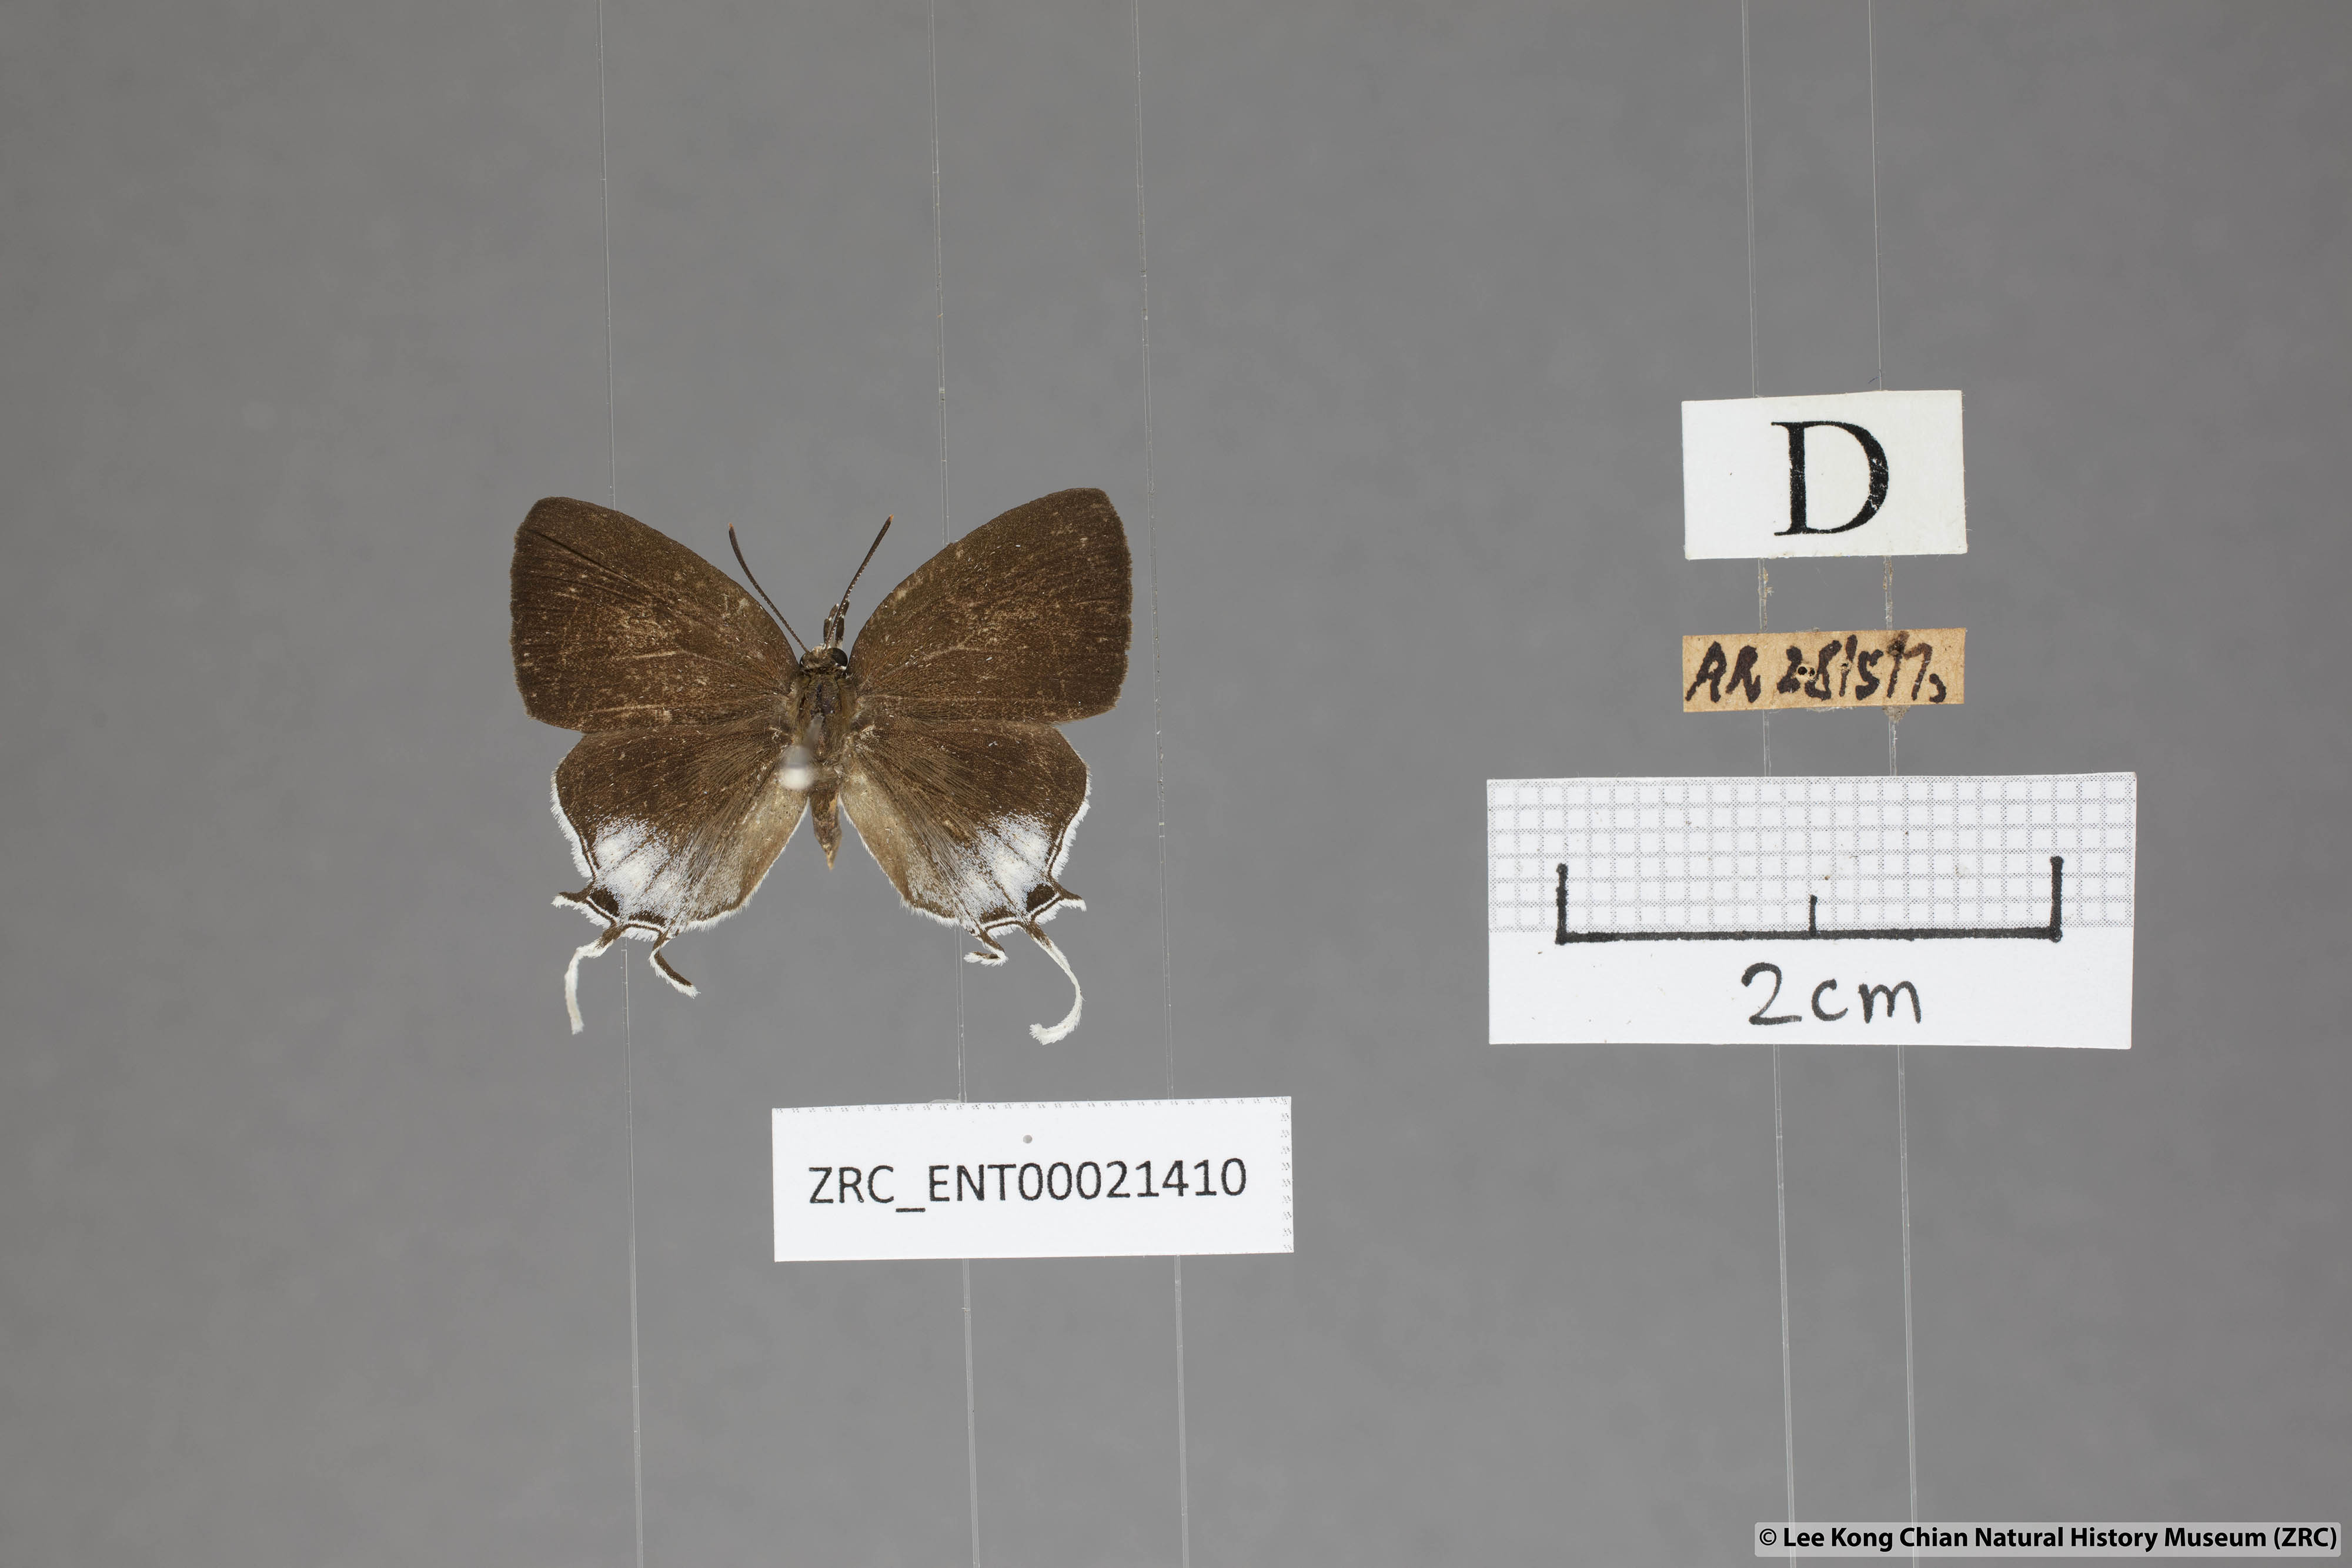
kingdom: Animalia
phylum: Arthropoda
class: Insecta
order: Lepidoptera
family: Lycaenidae
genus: Drupadia
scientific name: Drupadia scaeva
